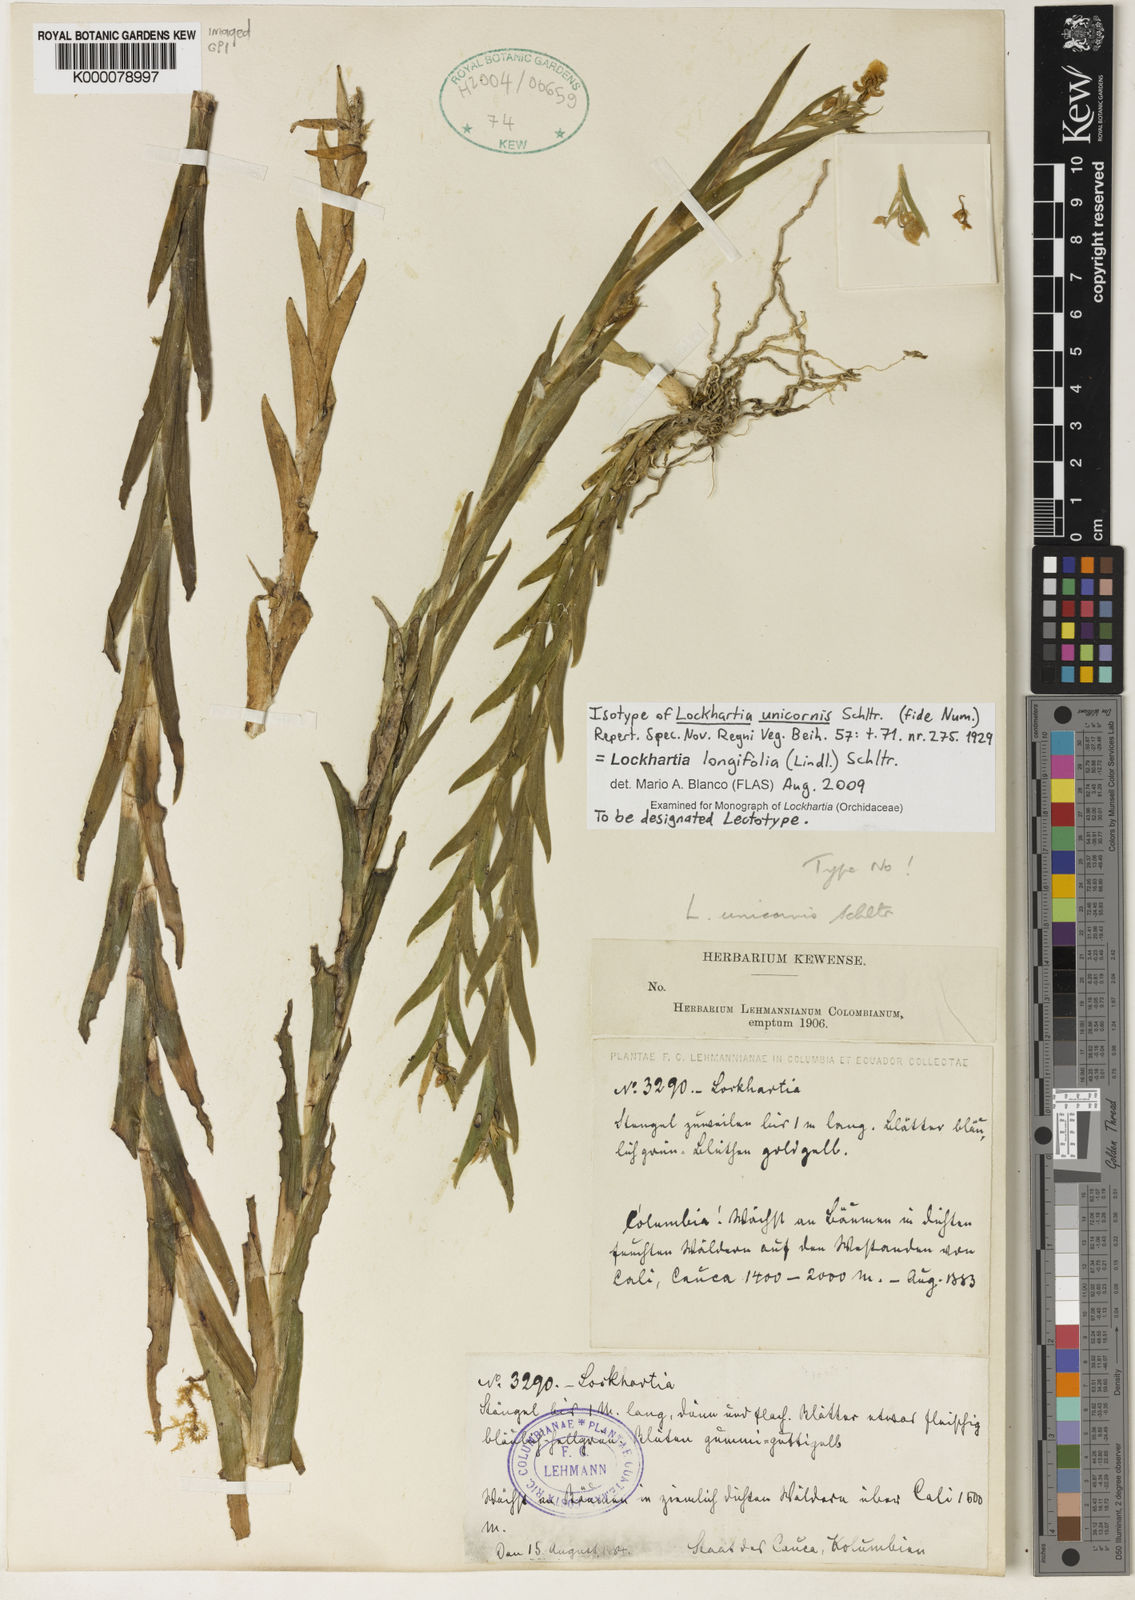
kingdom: Plantae
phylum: Tracheophyta
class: Liliopsida
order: Asparagales
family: Orchidaceae
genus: Lockhartia
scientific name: Lockhartia longifolia
